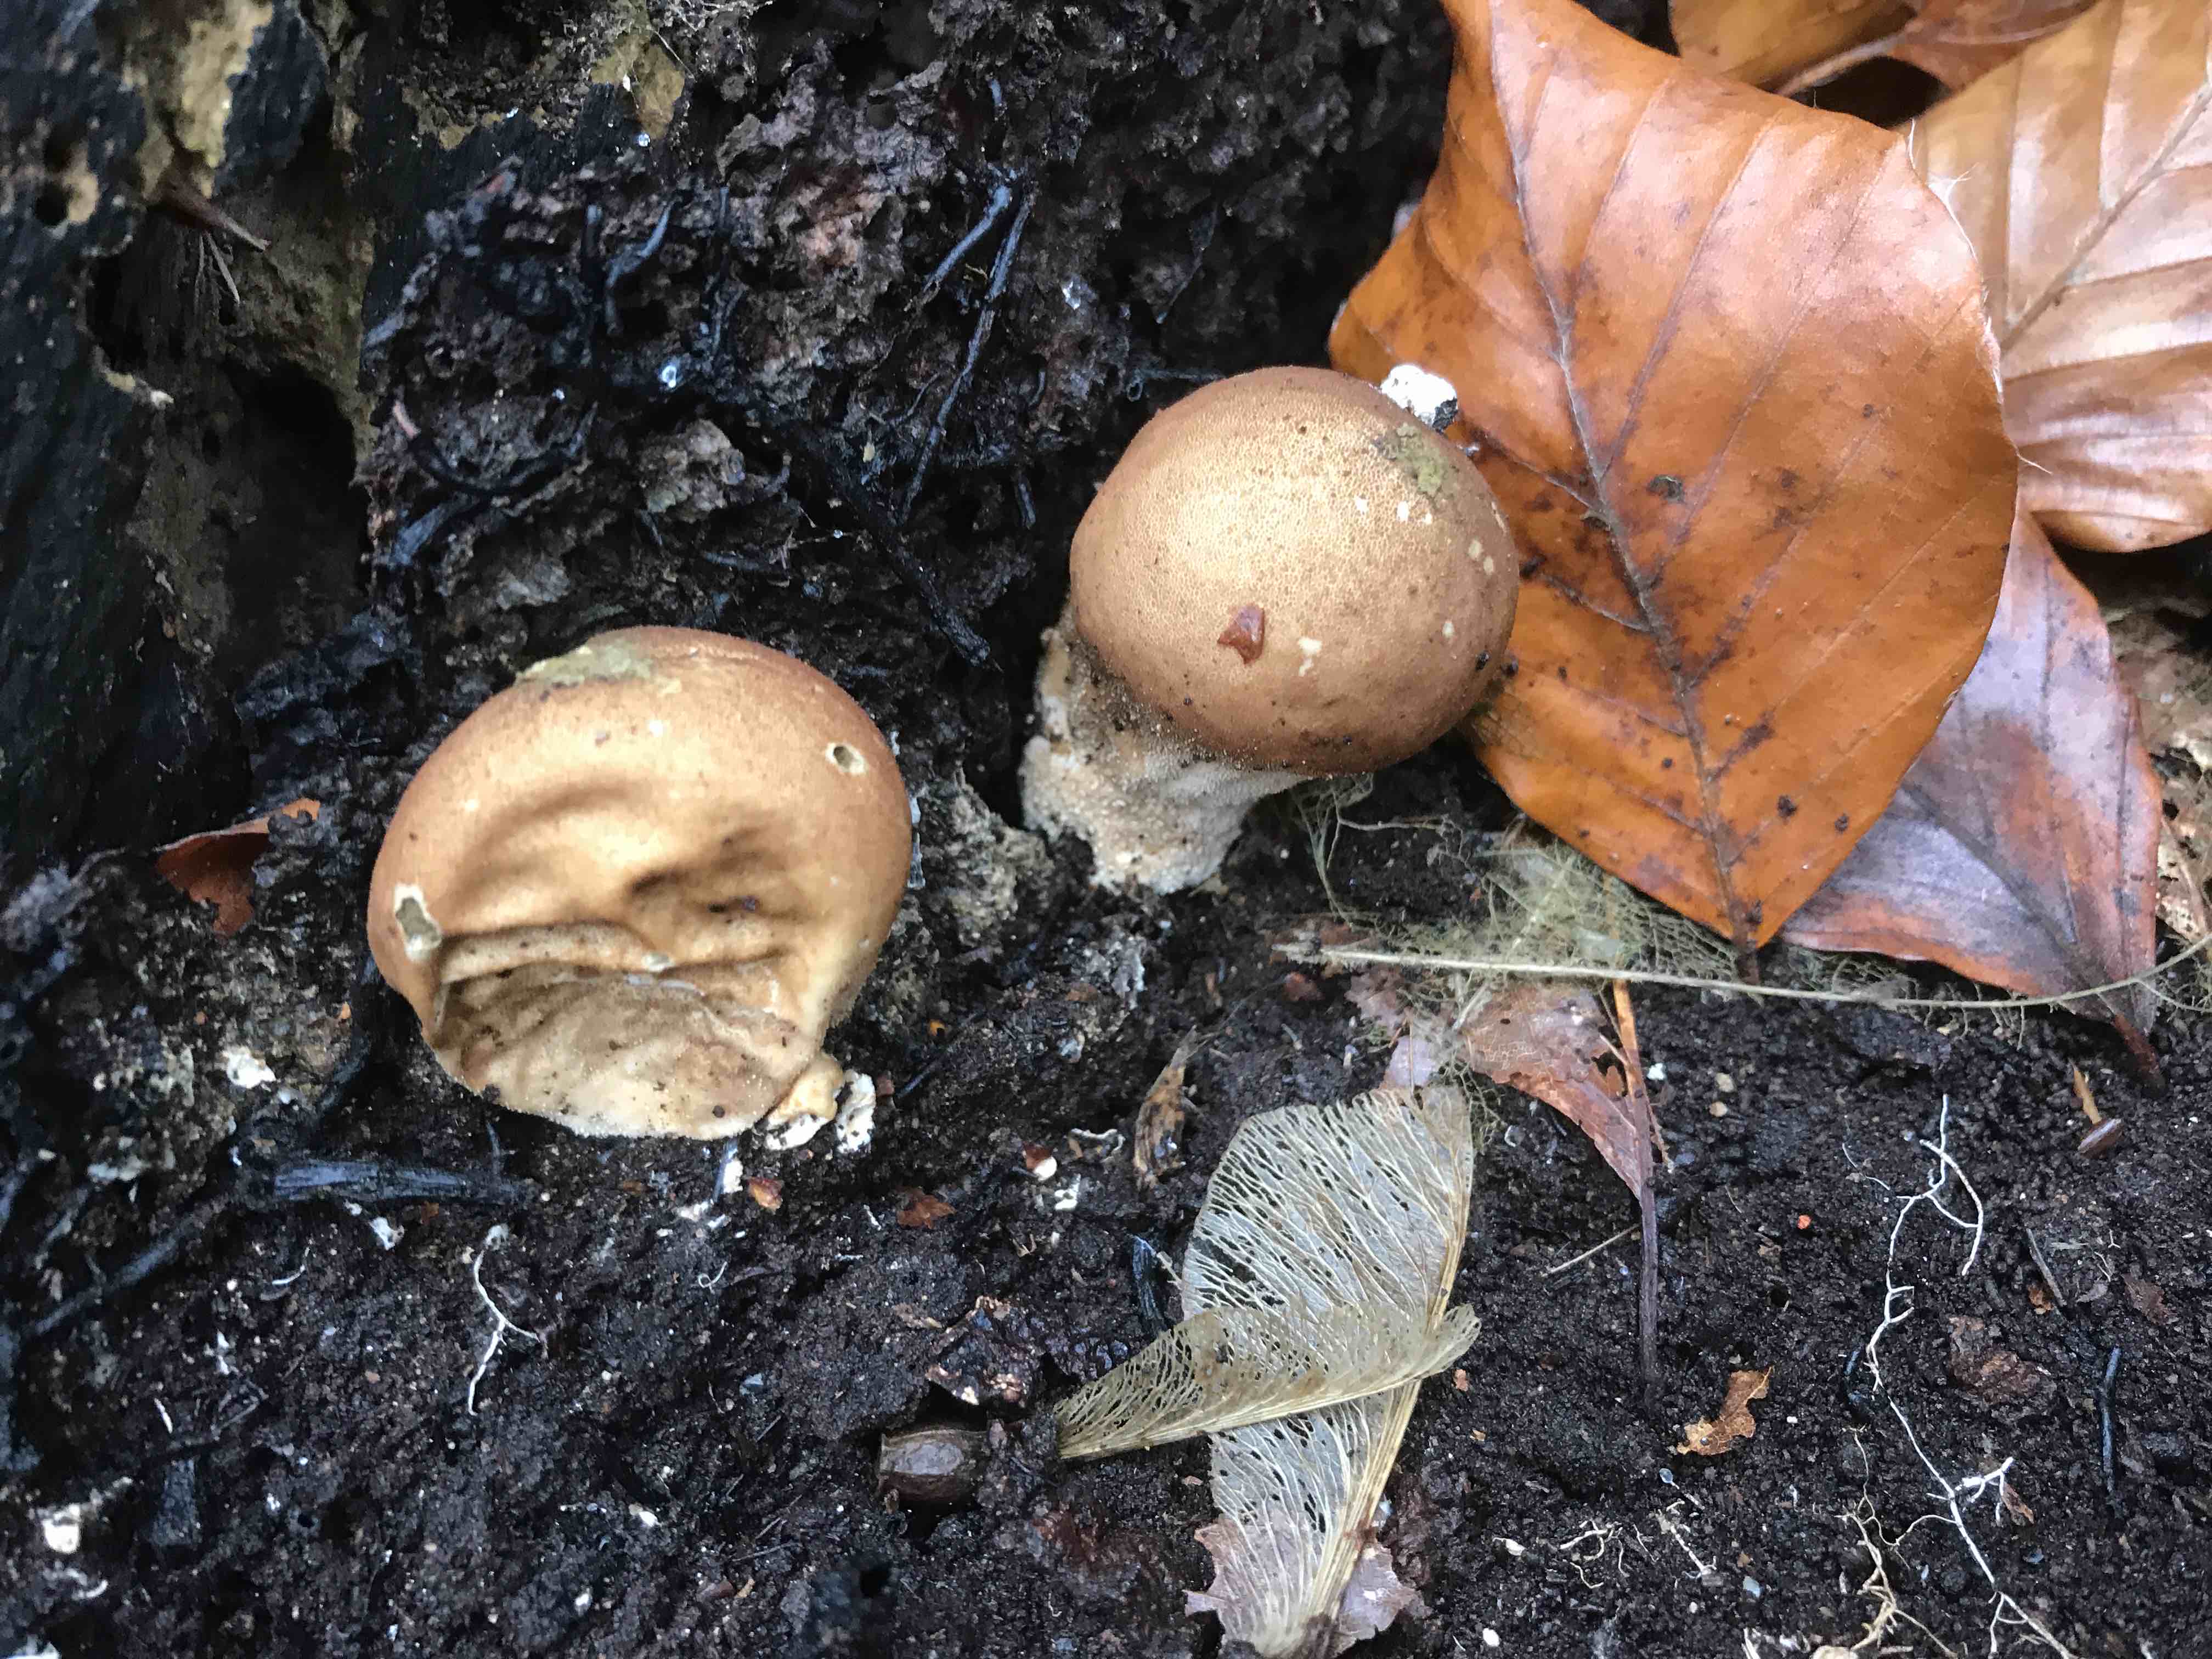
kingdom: Fungi
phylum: Basidiomycota
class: Agaricomycetes
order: Agaricales
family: Lycoperdaceae
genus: Apioperdon
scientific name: Apioperdon pyriforme
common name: pære-støvbold
